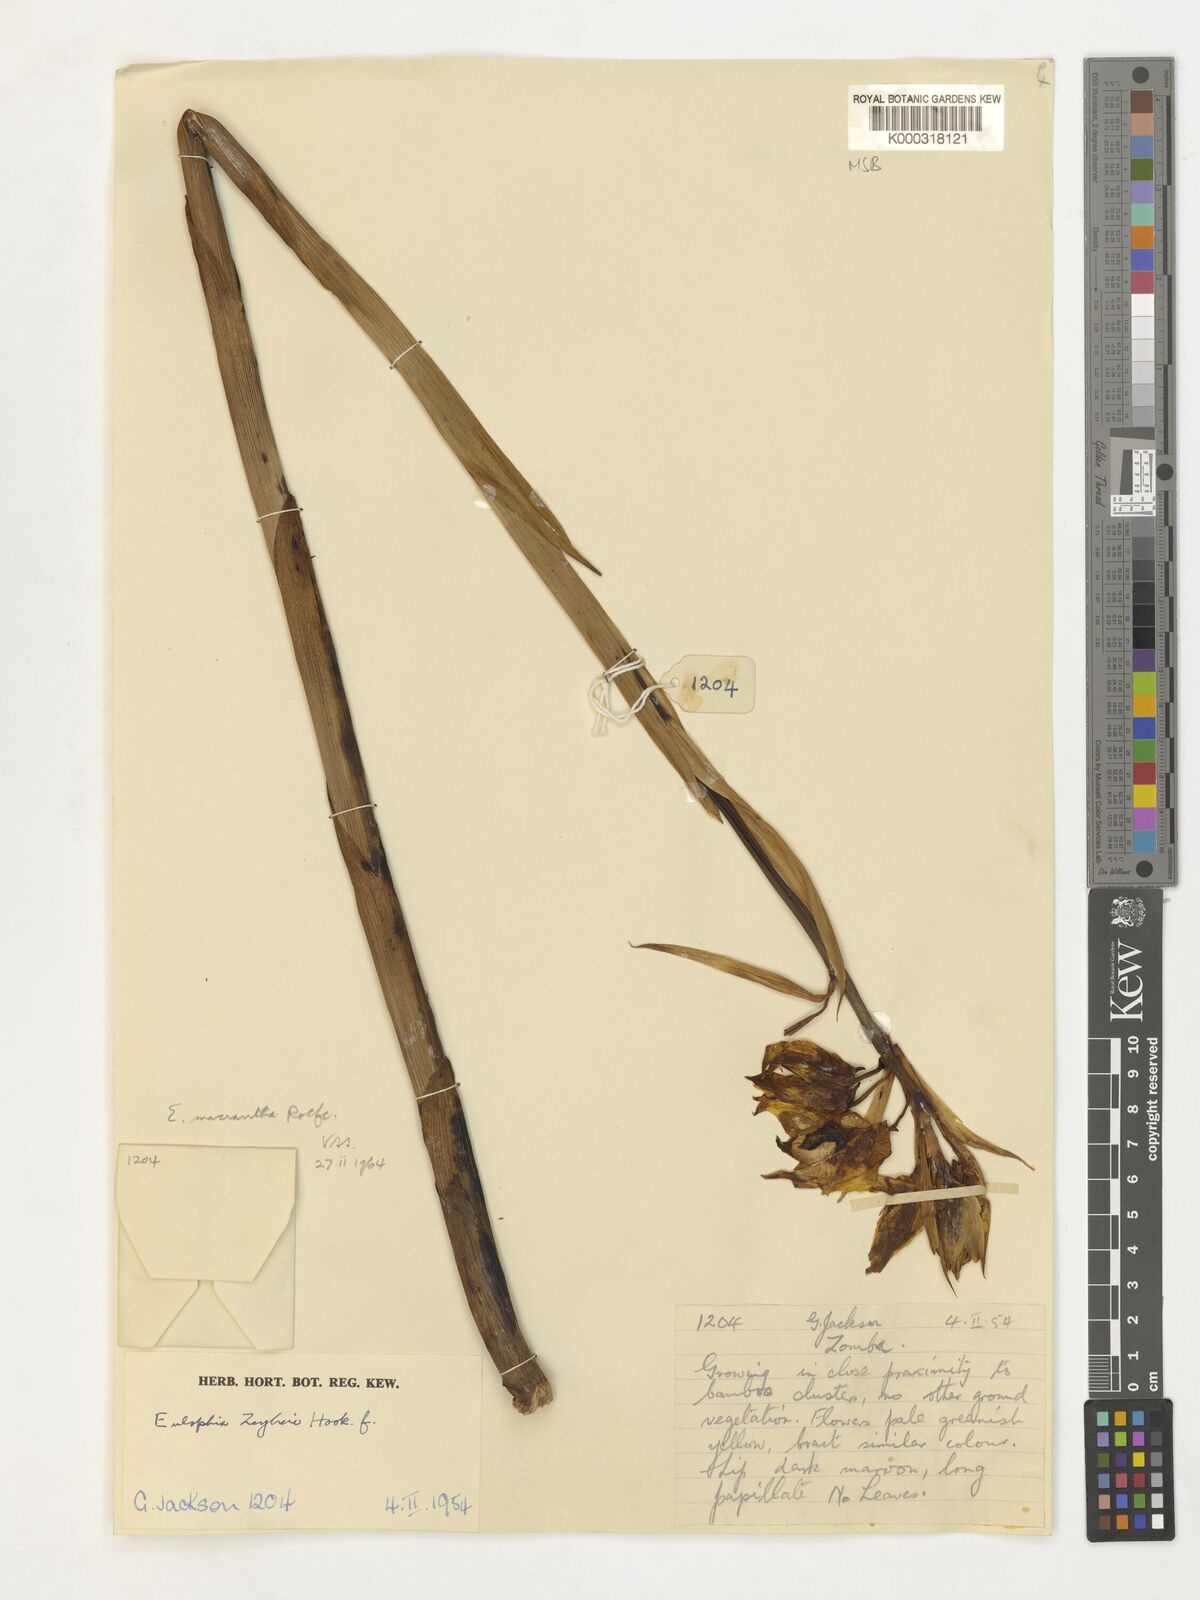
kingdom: Plantae
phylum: Tracheophyta
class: Liliopsida
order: Asparagales
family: Orchidaceae
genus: Eulophia
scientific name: Eulophia macrantha
